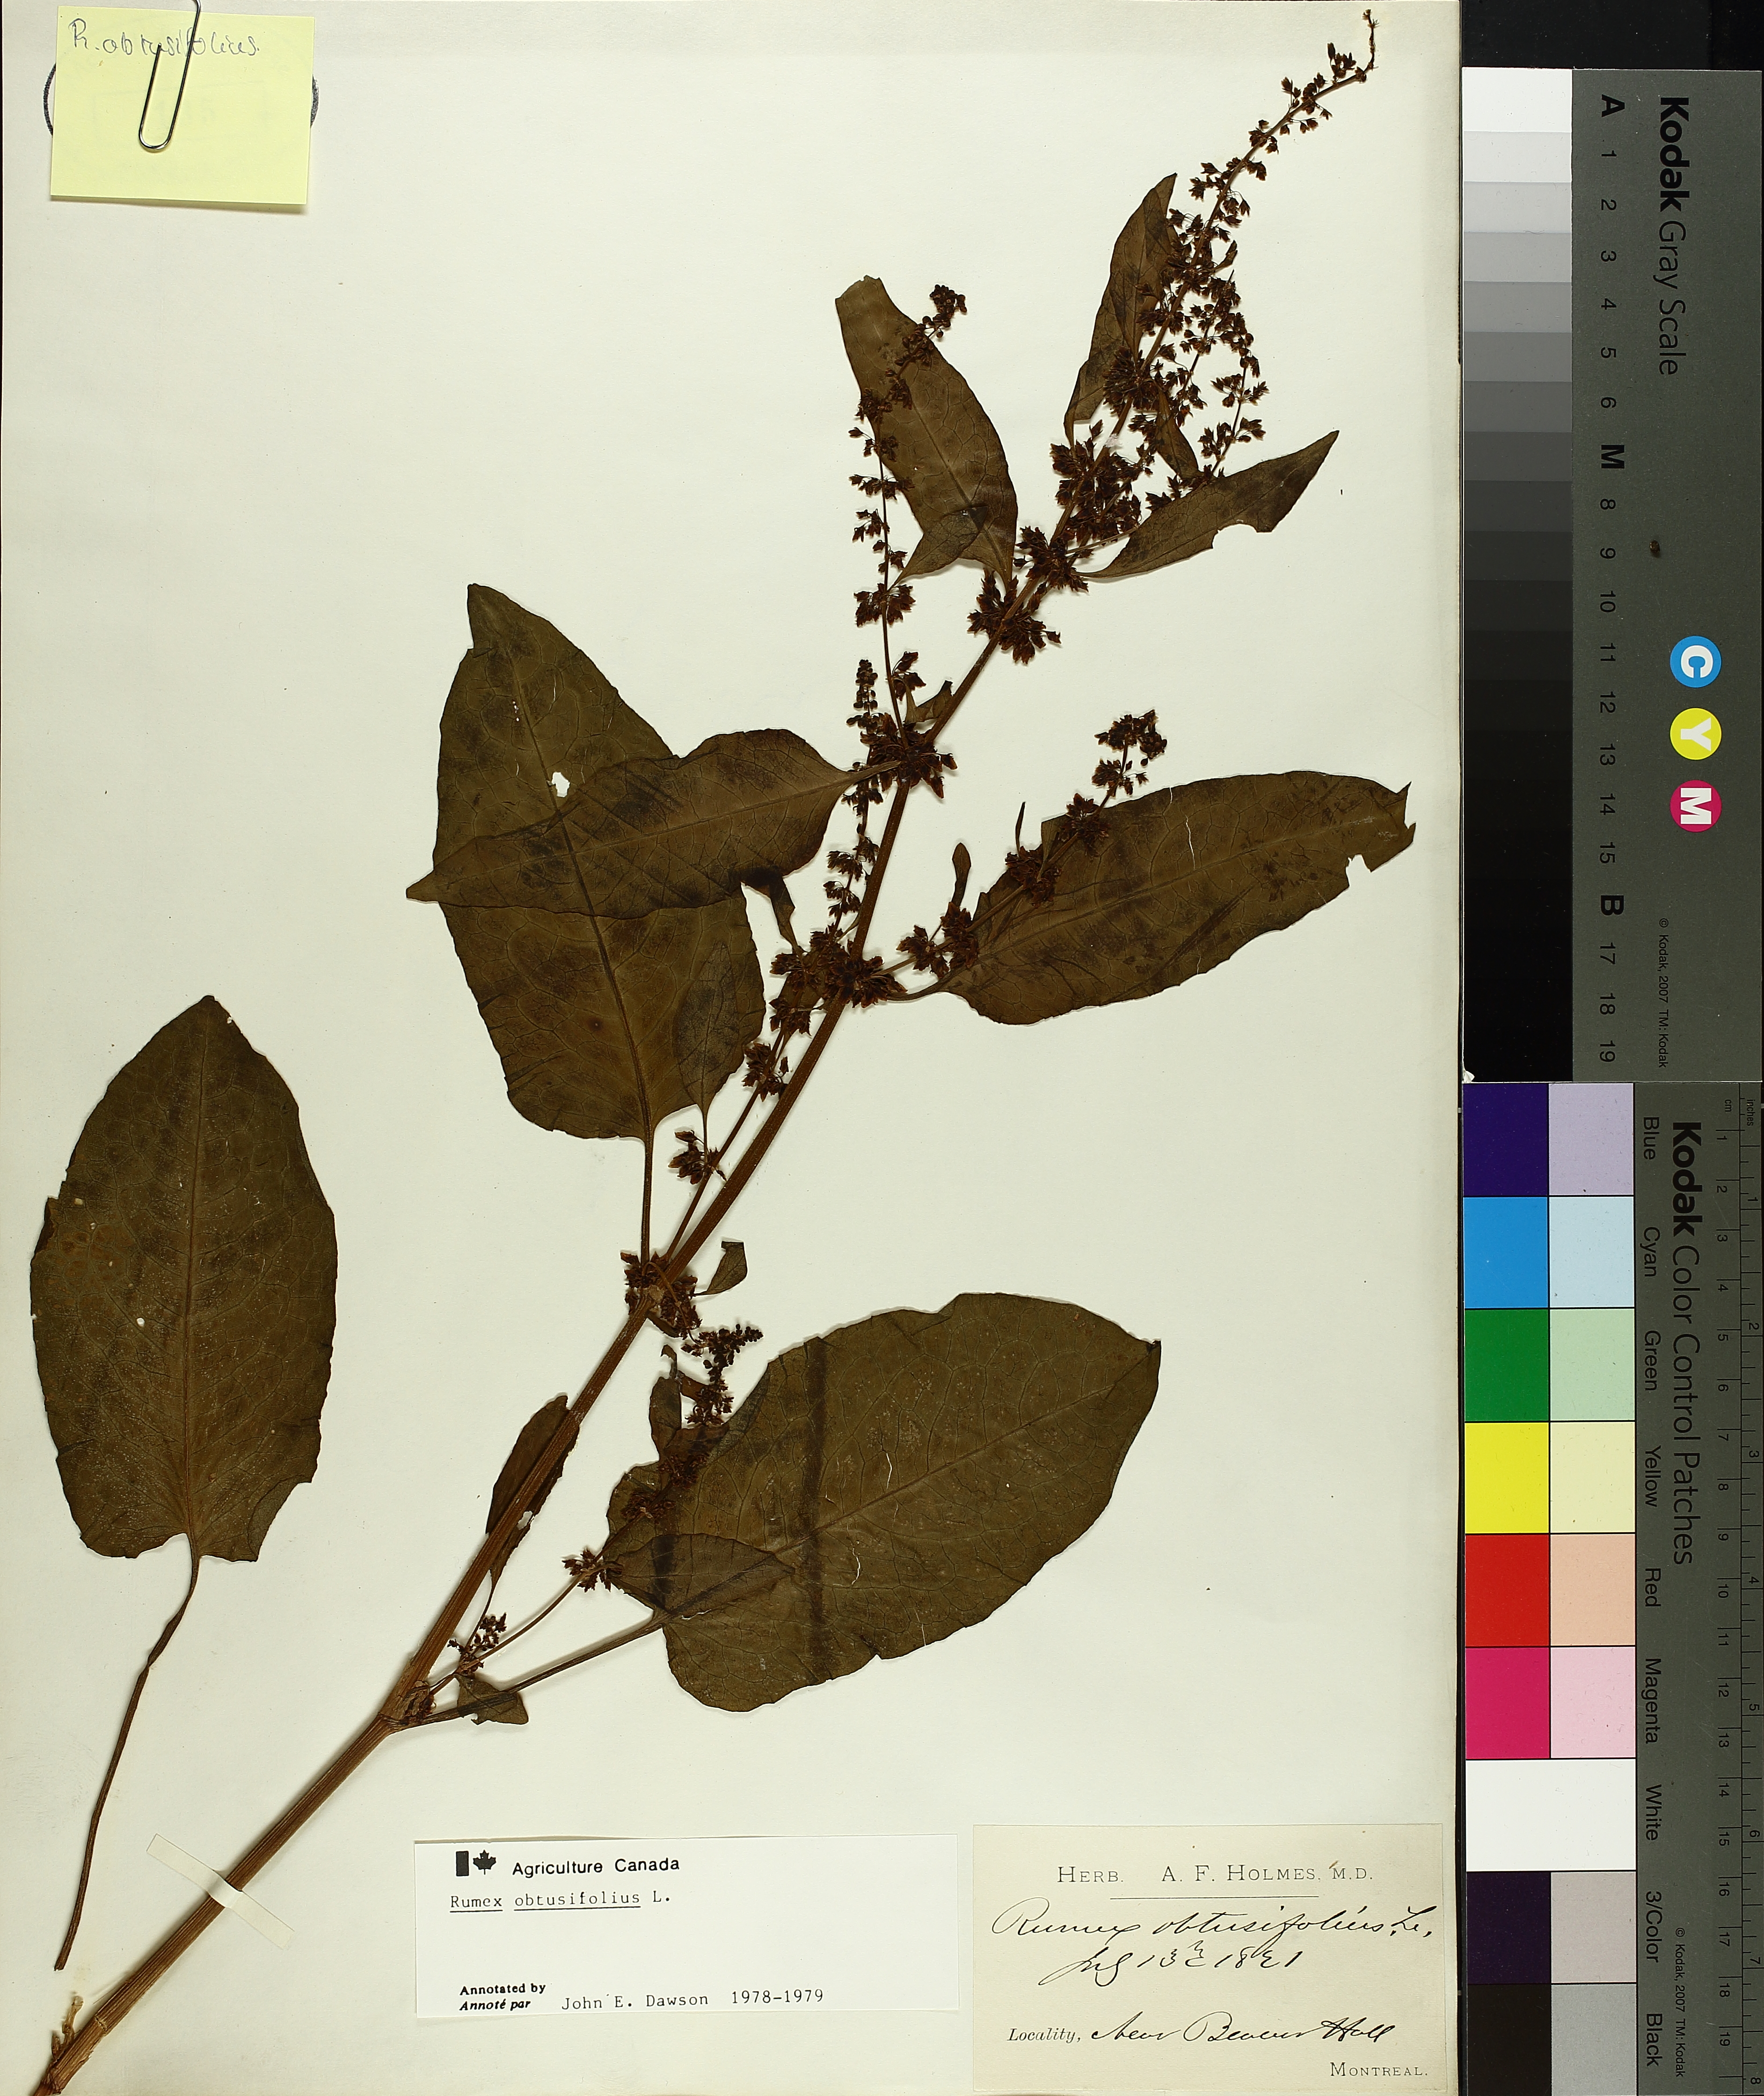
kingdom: Plantae
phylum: Tracheophyta
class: Magnoliopsida
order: Caryophyllales
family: Polygonaceae
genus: Rumex
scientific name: Rumex obtusifolius
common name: Bitter dock
